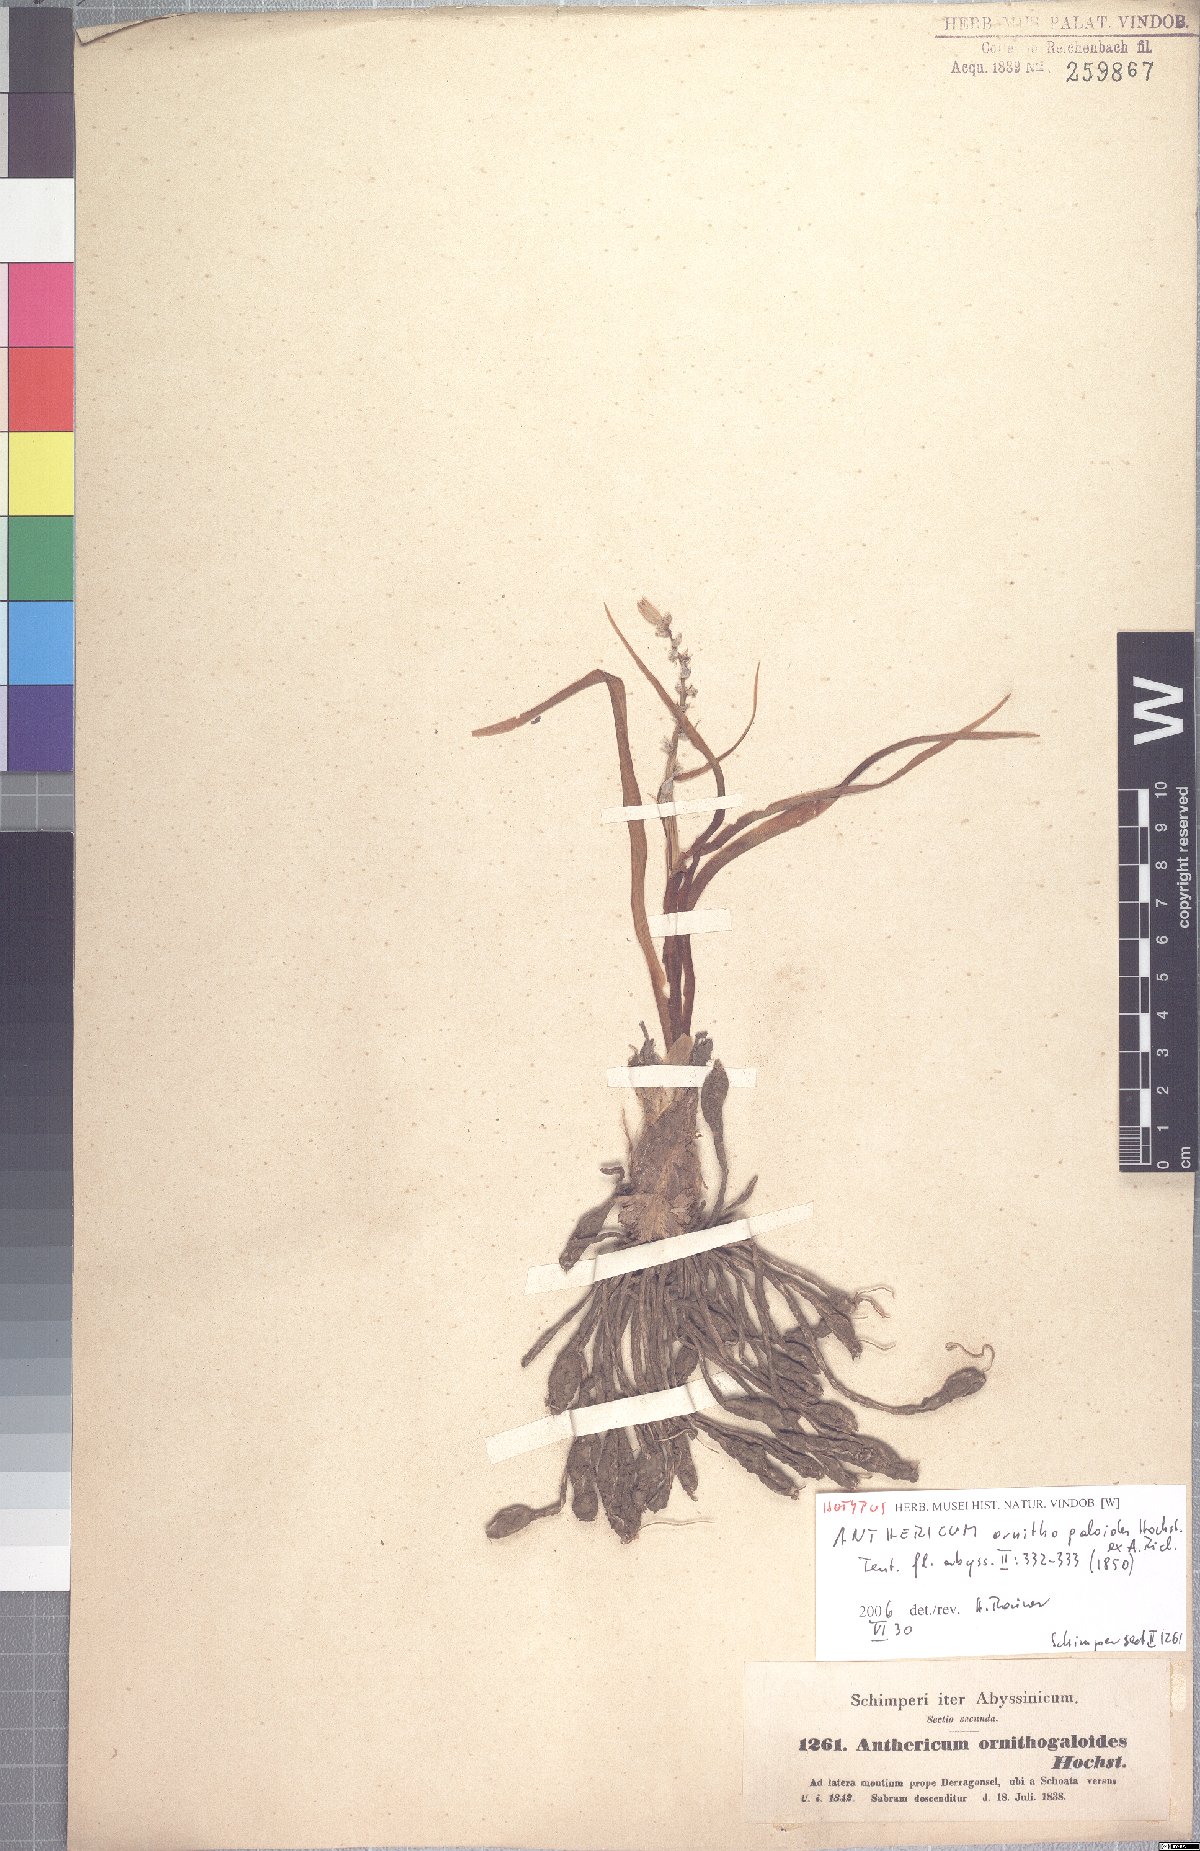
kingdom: Plantae
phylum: Tracheophyta
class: Liliopsida
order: Asparagales
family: Asparagaceae
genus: Chlorophytum
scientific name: Chlorophytum tuberosum
